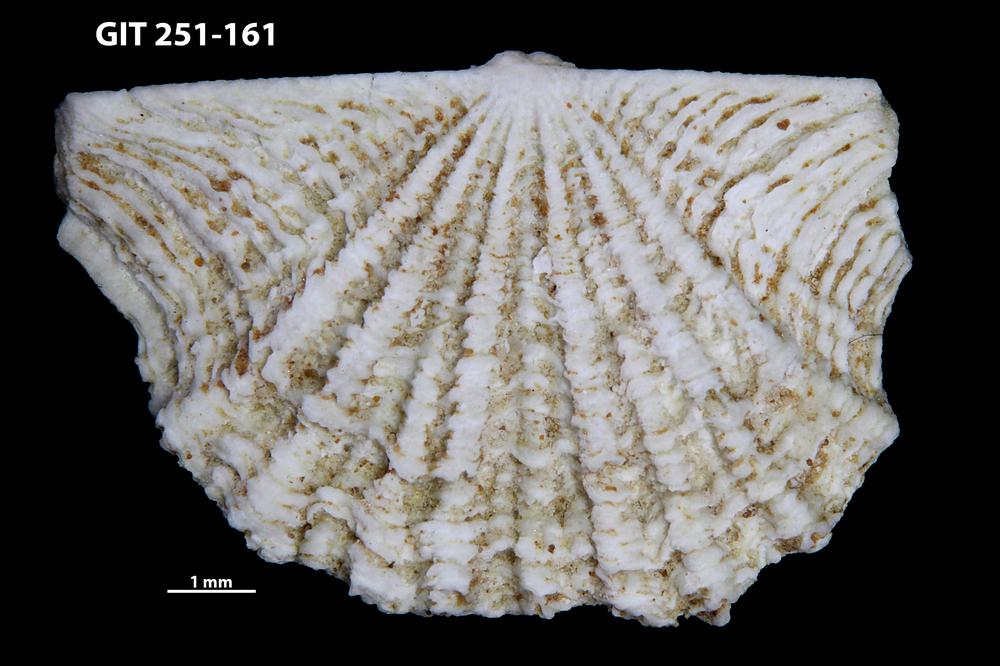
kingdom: Animalia
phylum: Brachiopoda
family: Kullervoidae
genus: Kullervo
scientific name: Kullervo lacunata
